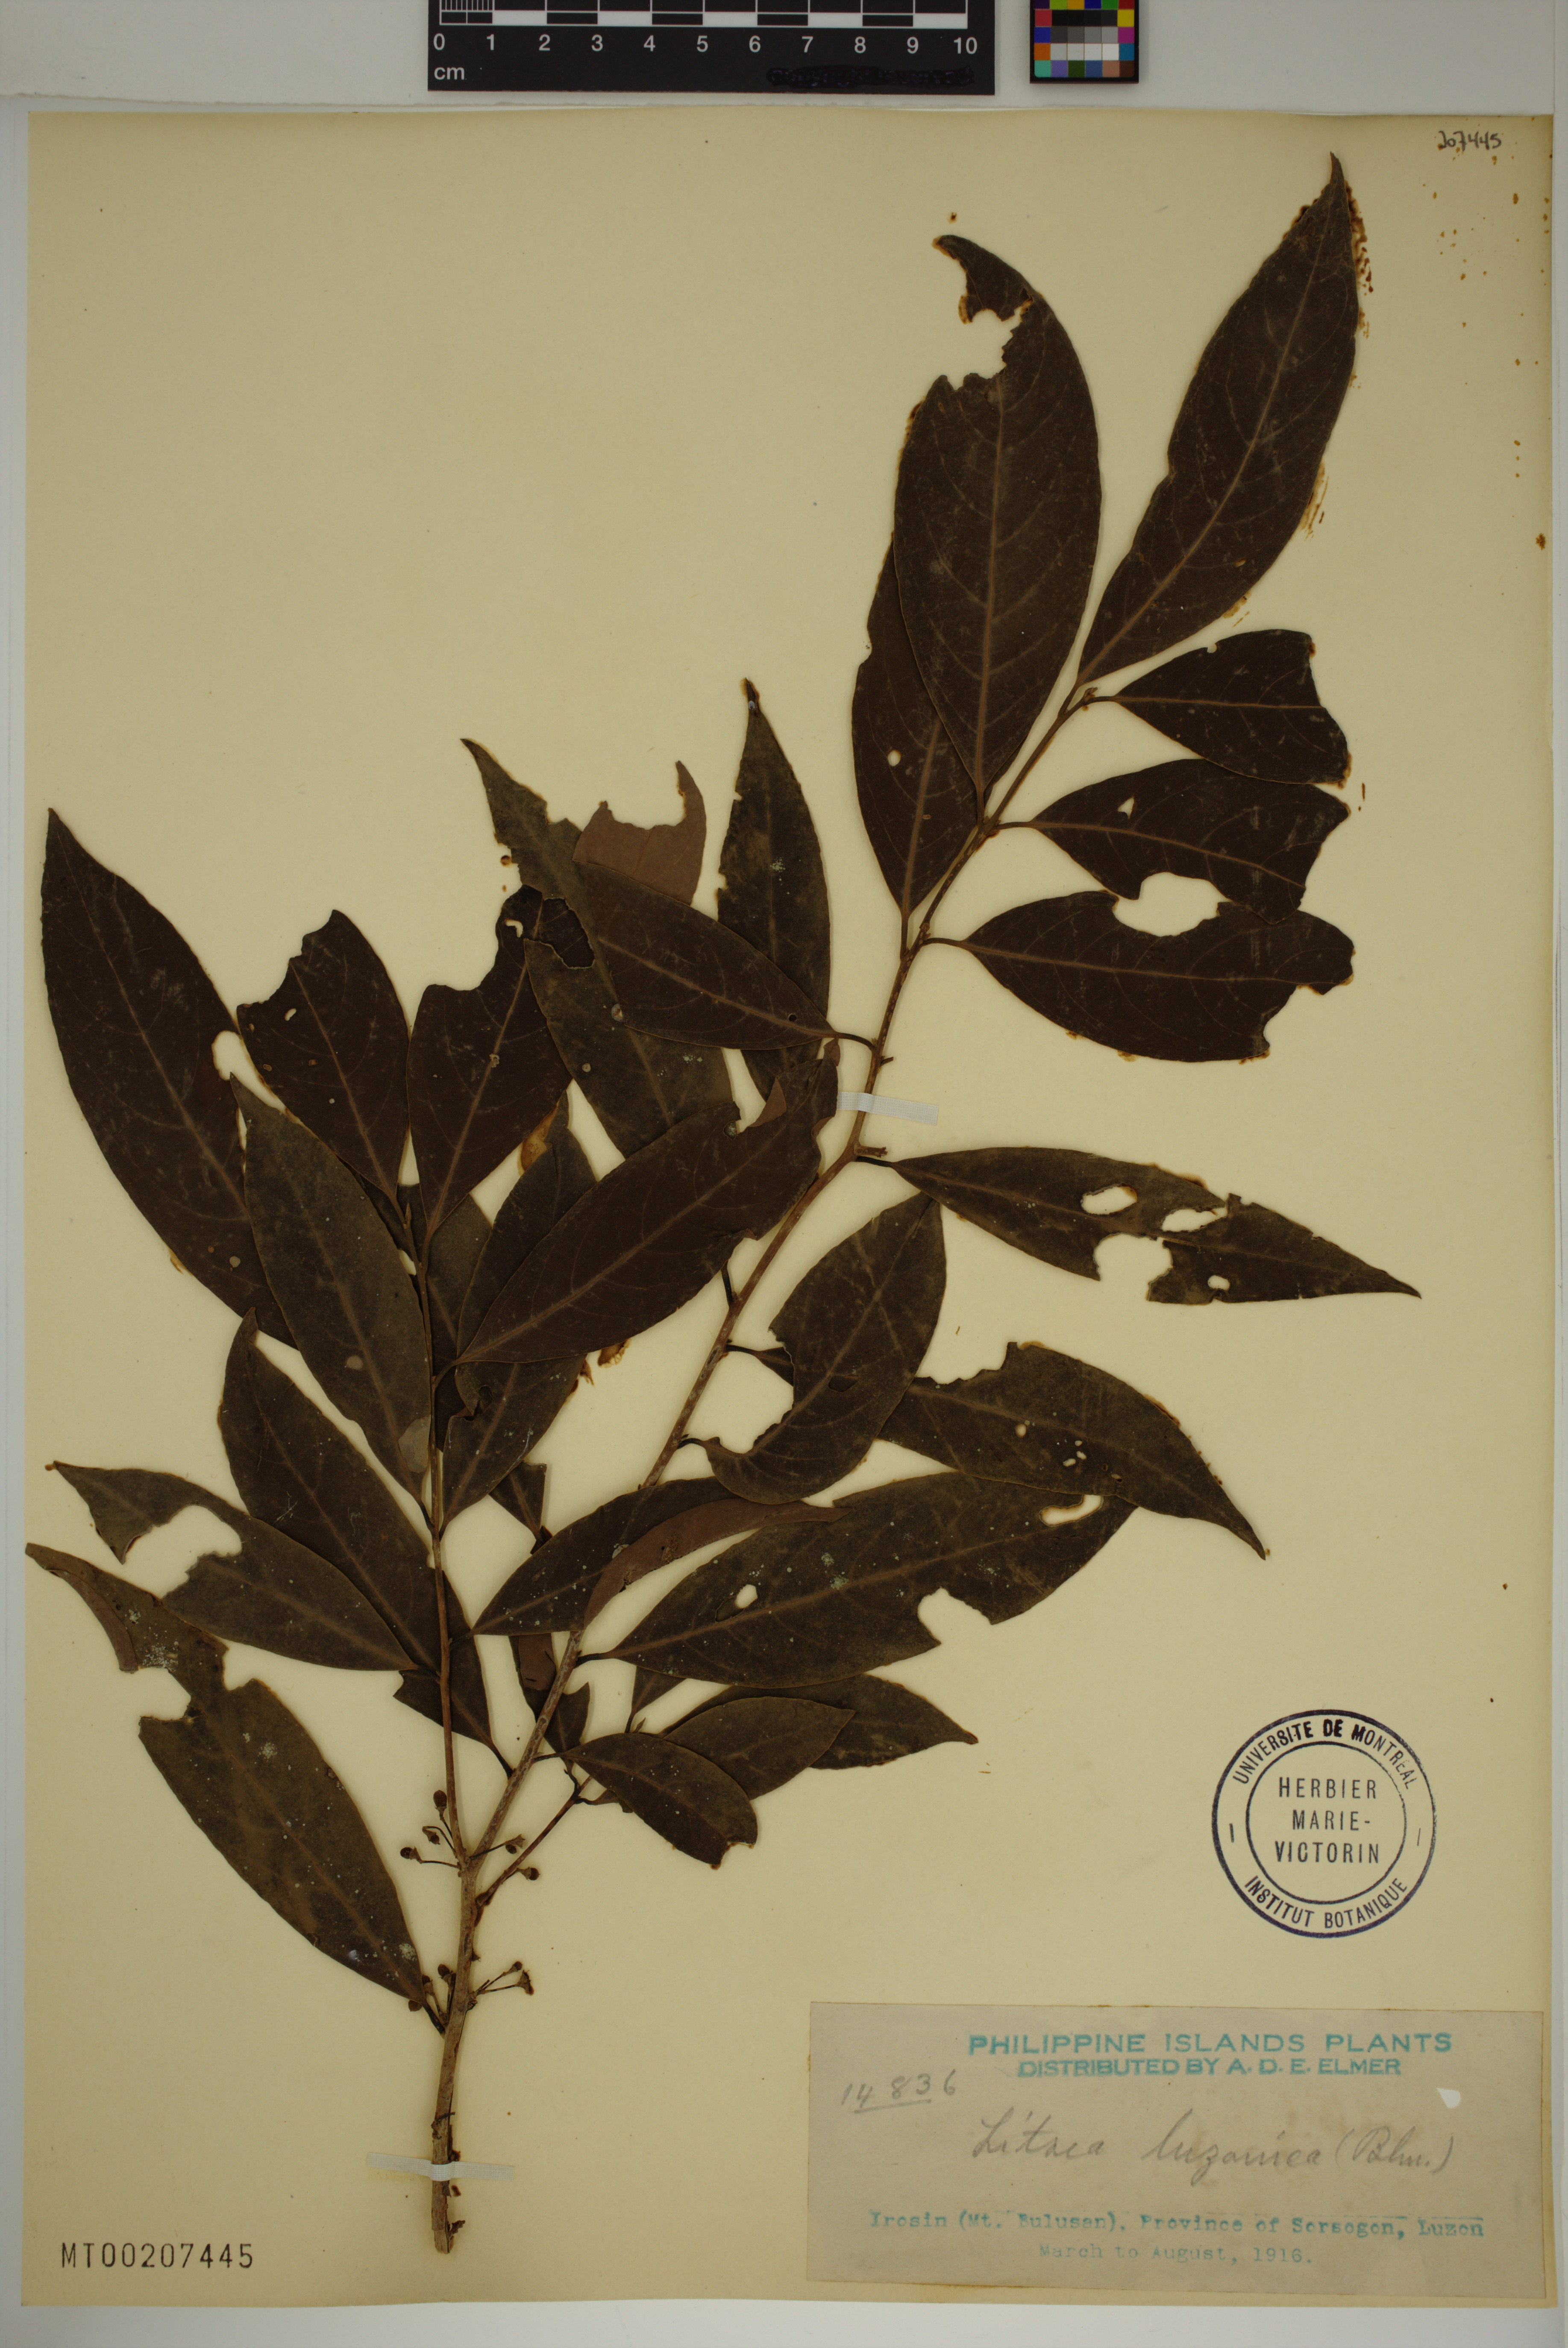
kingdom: Plantae
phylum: Tracheophyta
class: Magnoliopsida
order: Laurales
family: Lauraceae
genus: Litsea
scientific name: Litsea luzonica
